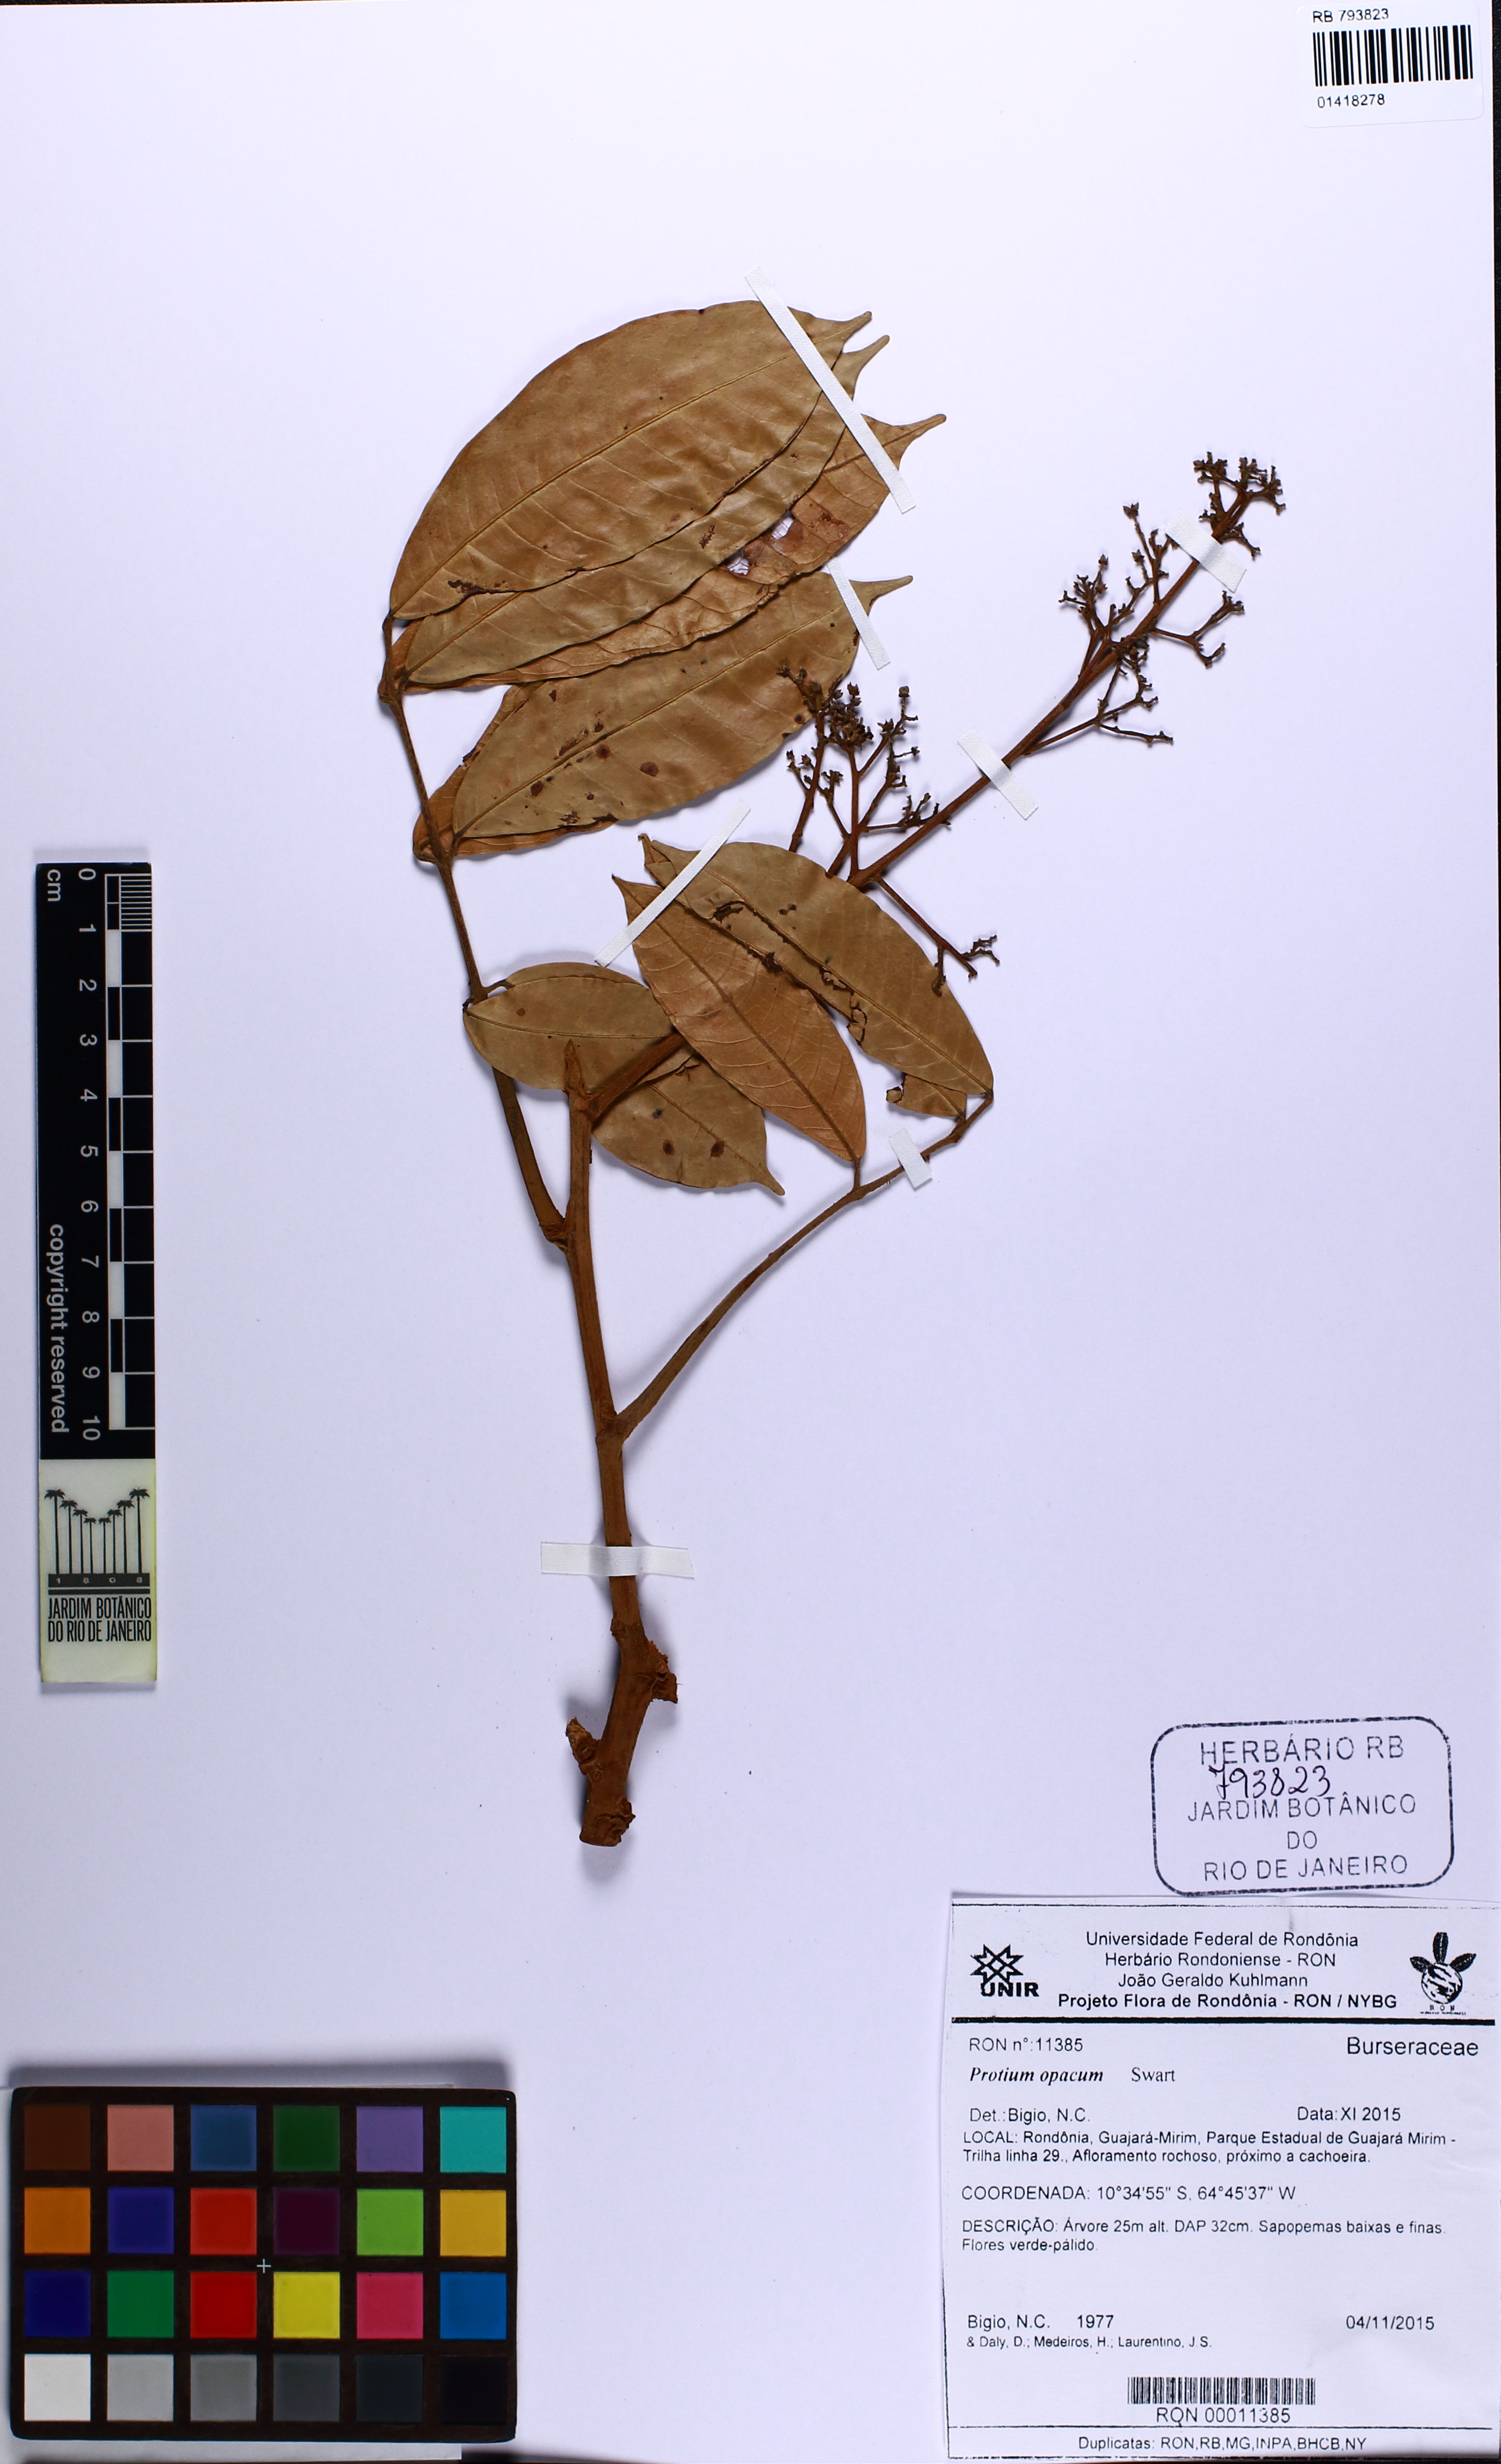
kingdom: Plantae
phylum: Tracheophyta
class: Magnoliopsida
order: Sapindales
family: Burseraceae
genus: Protium
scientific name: Protium opacum
